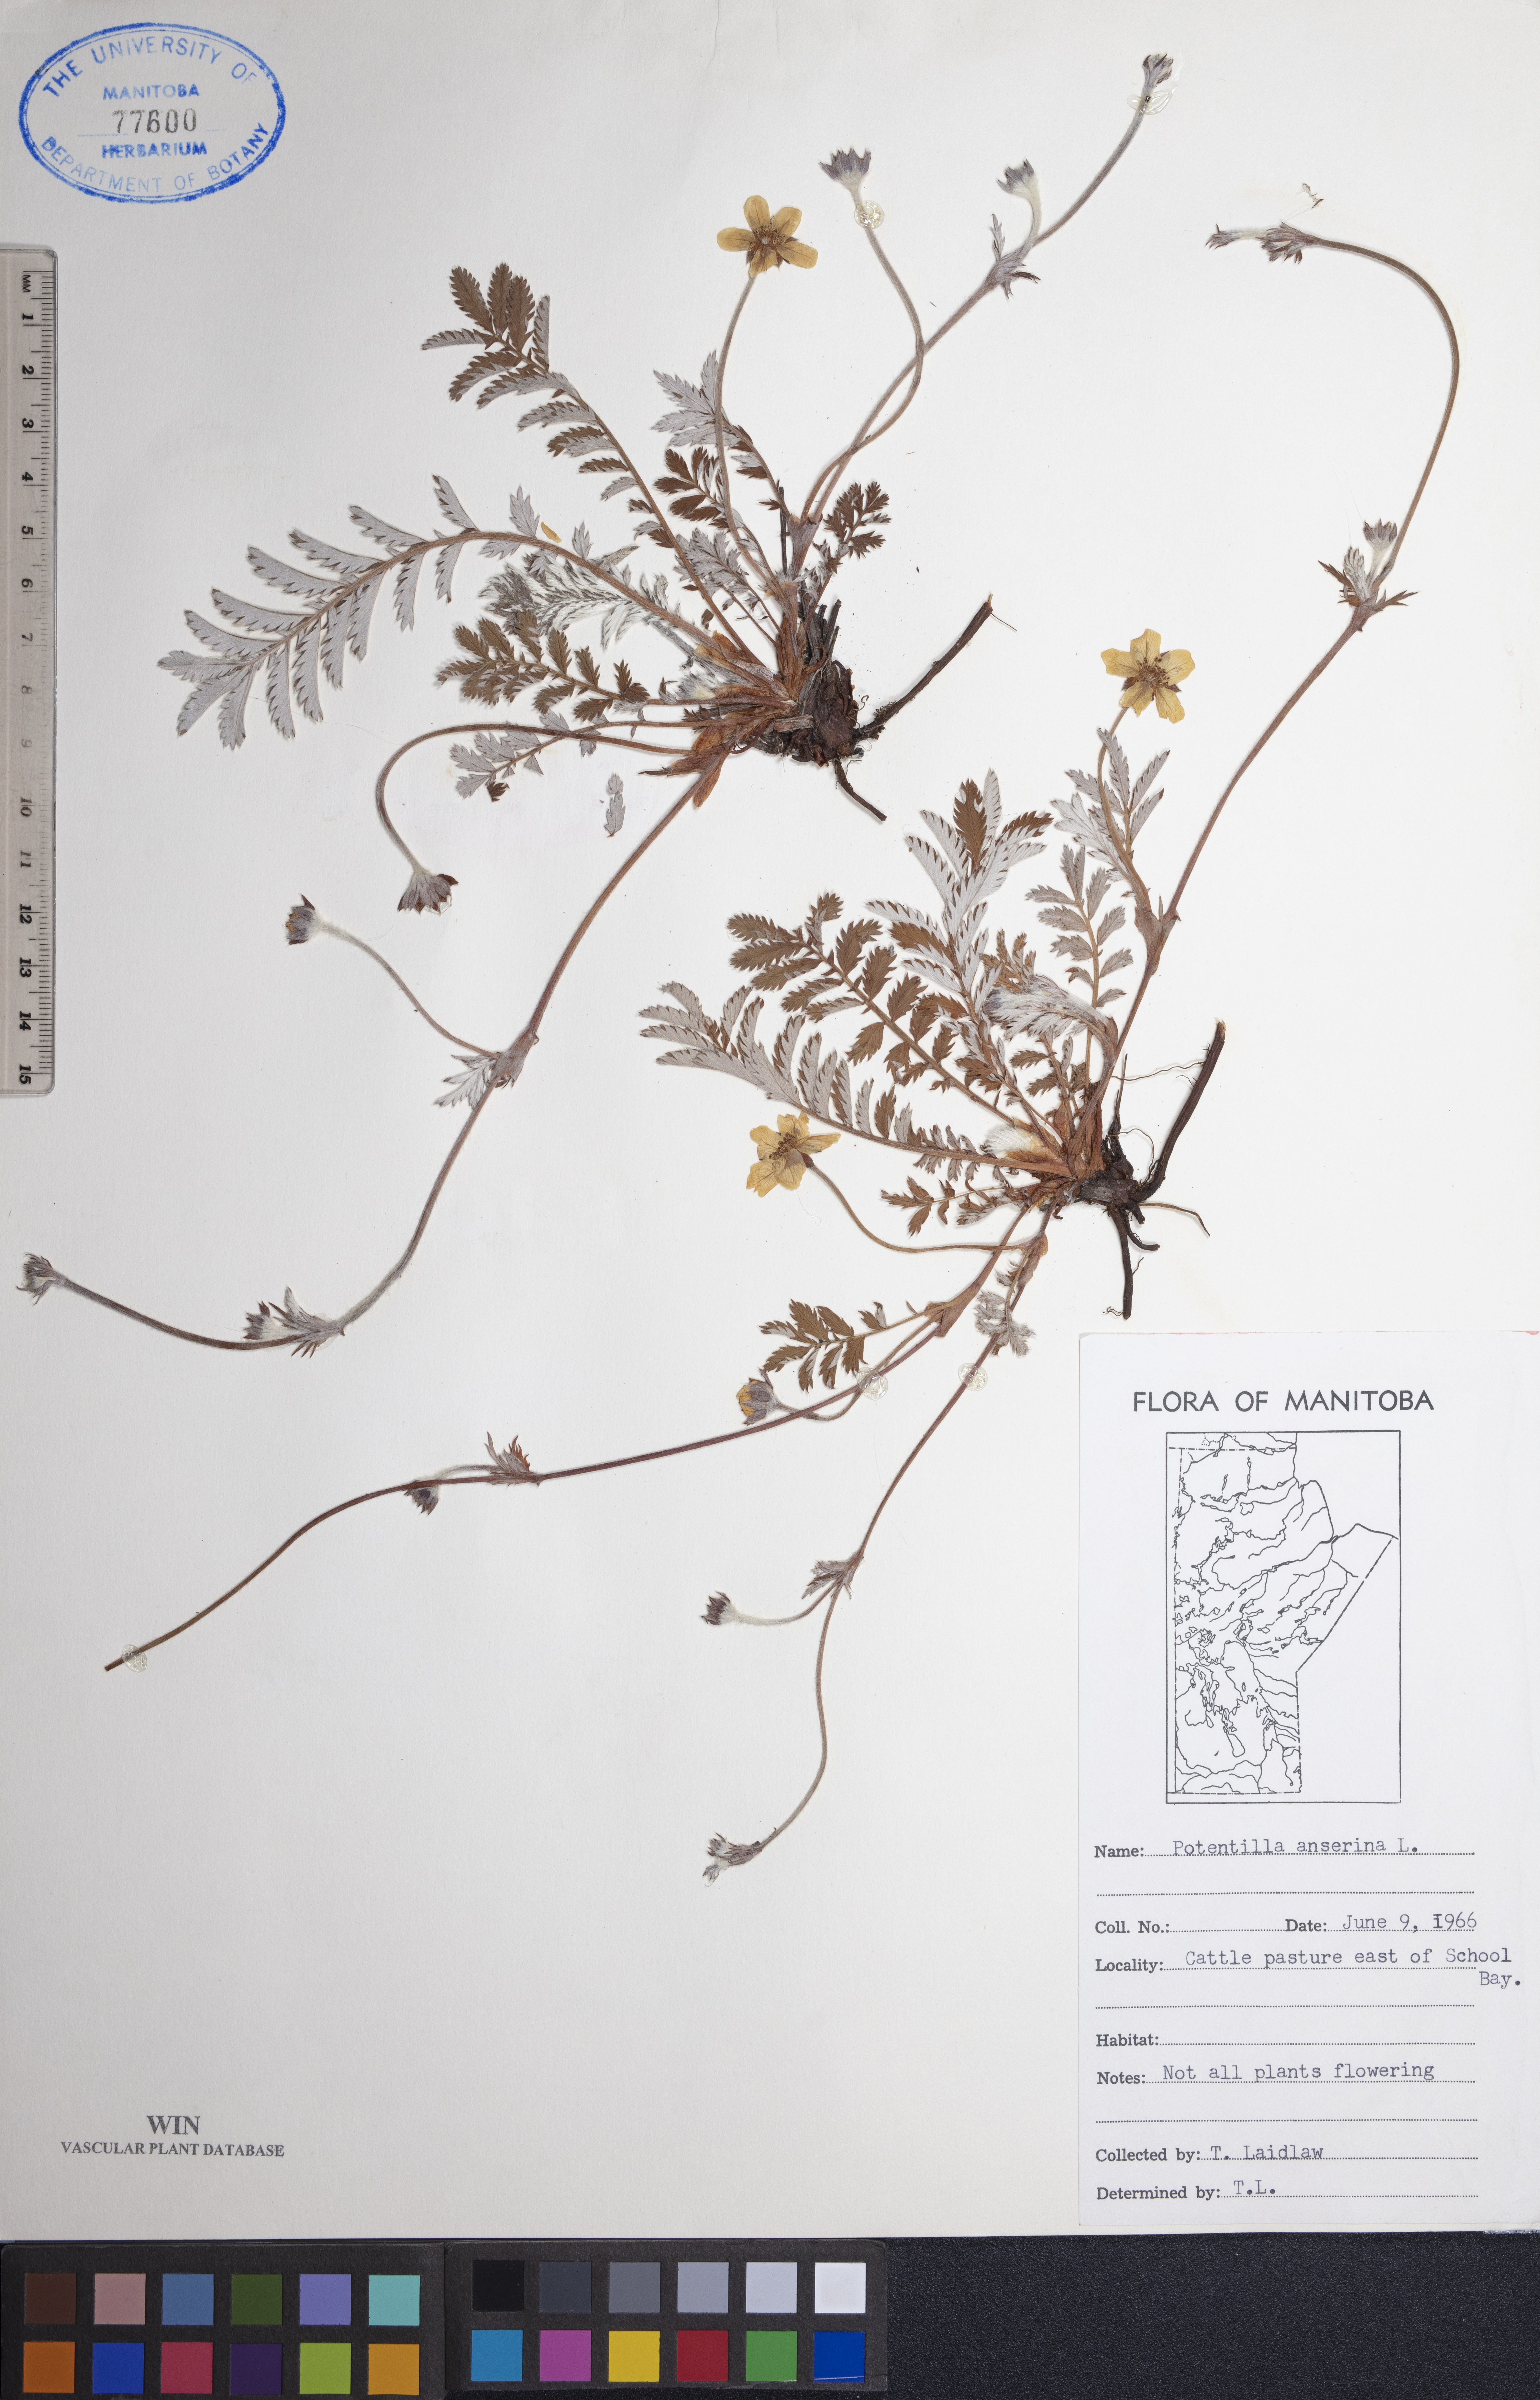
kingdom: Plantae
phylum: Tracheophyta
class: Magnoliopsida
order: Rosales
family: Rosaceae
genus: Argentina
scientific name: Argentina anserina
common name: Common silverweed
